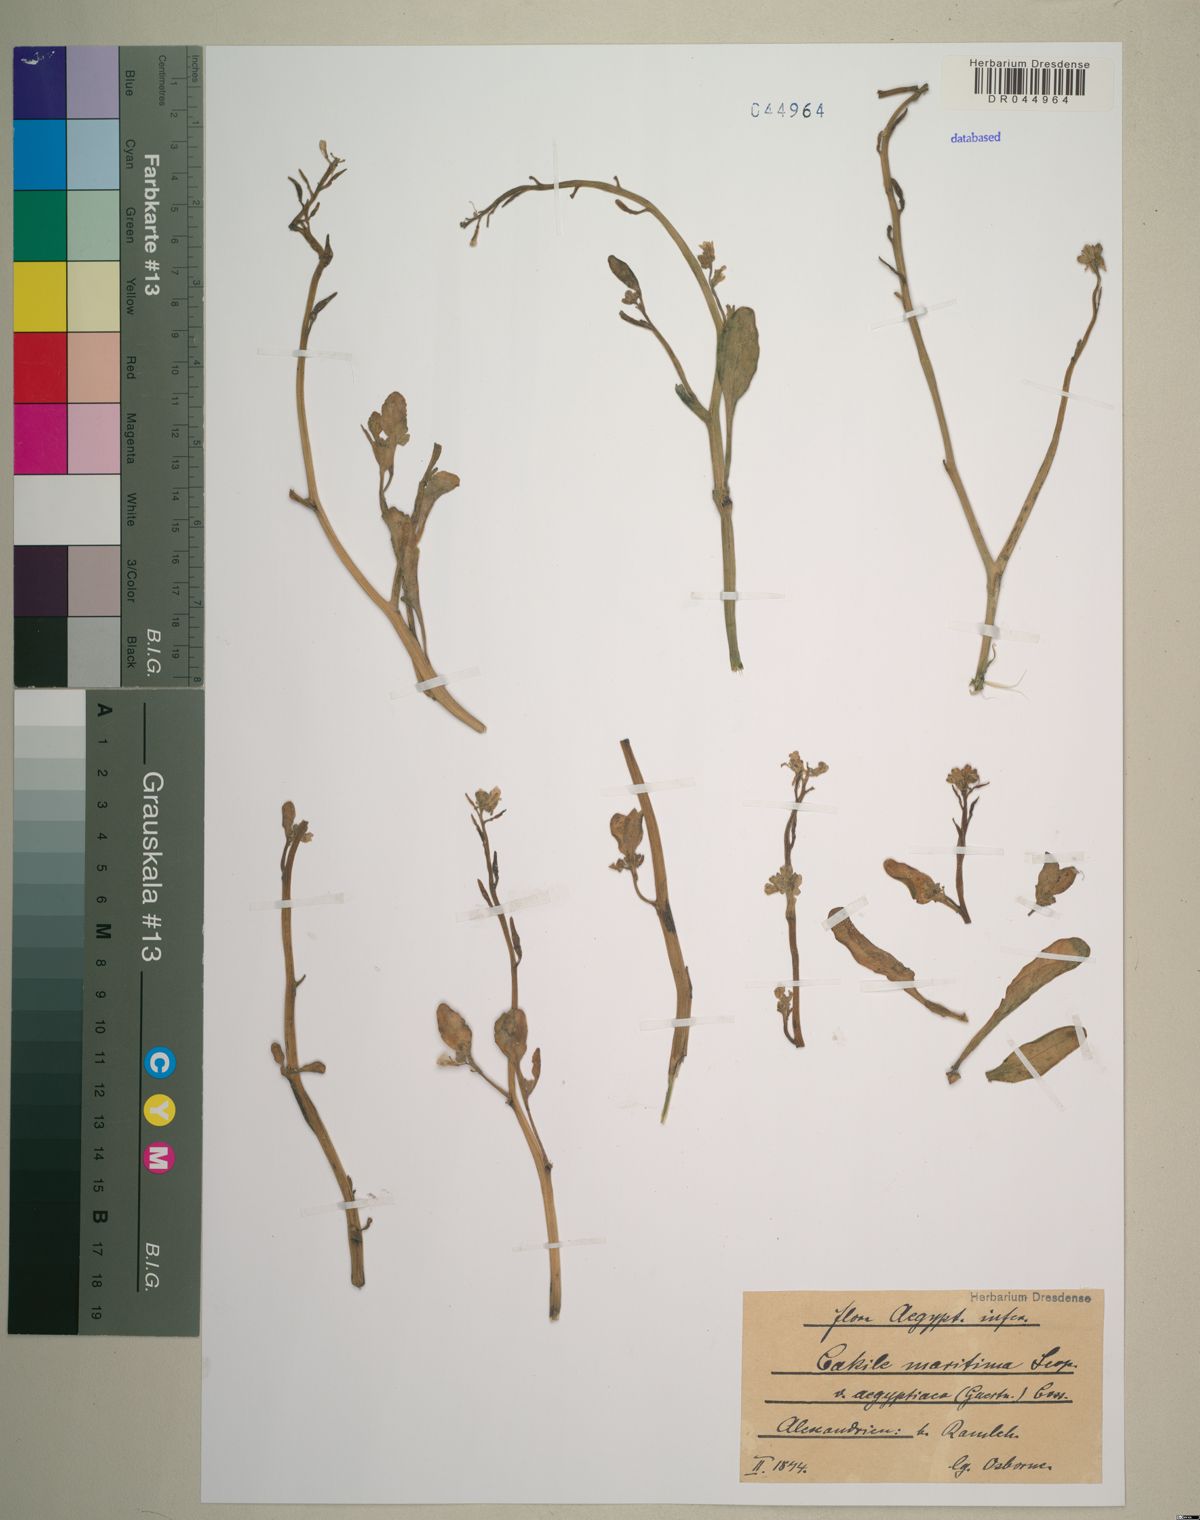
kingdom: Plantae
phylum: Tracheophyta
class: Magnoliopsida
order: Brassicales
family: Brassicaceae
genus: Cakile
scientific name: Cakile maritima
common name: Sea rocket
